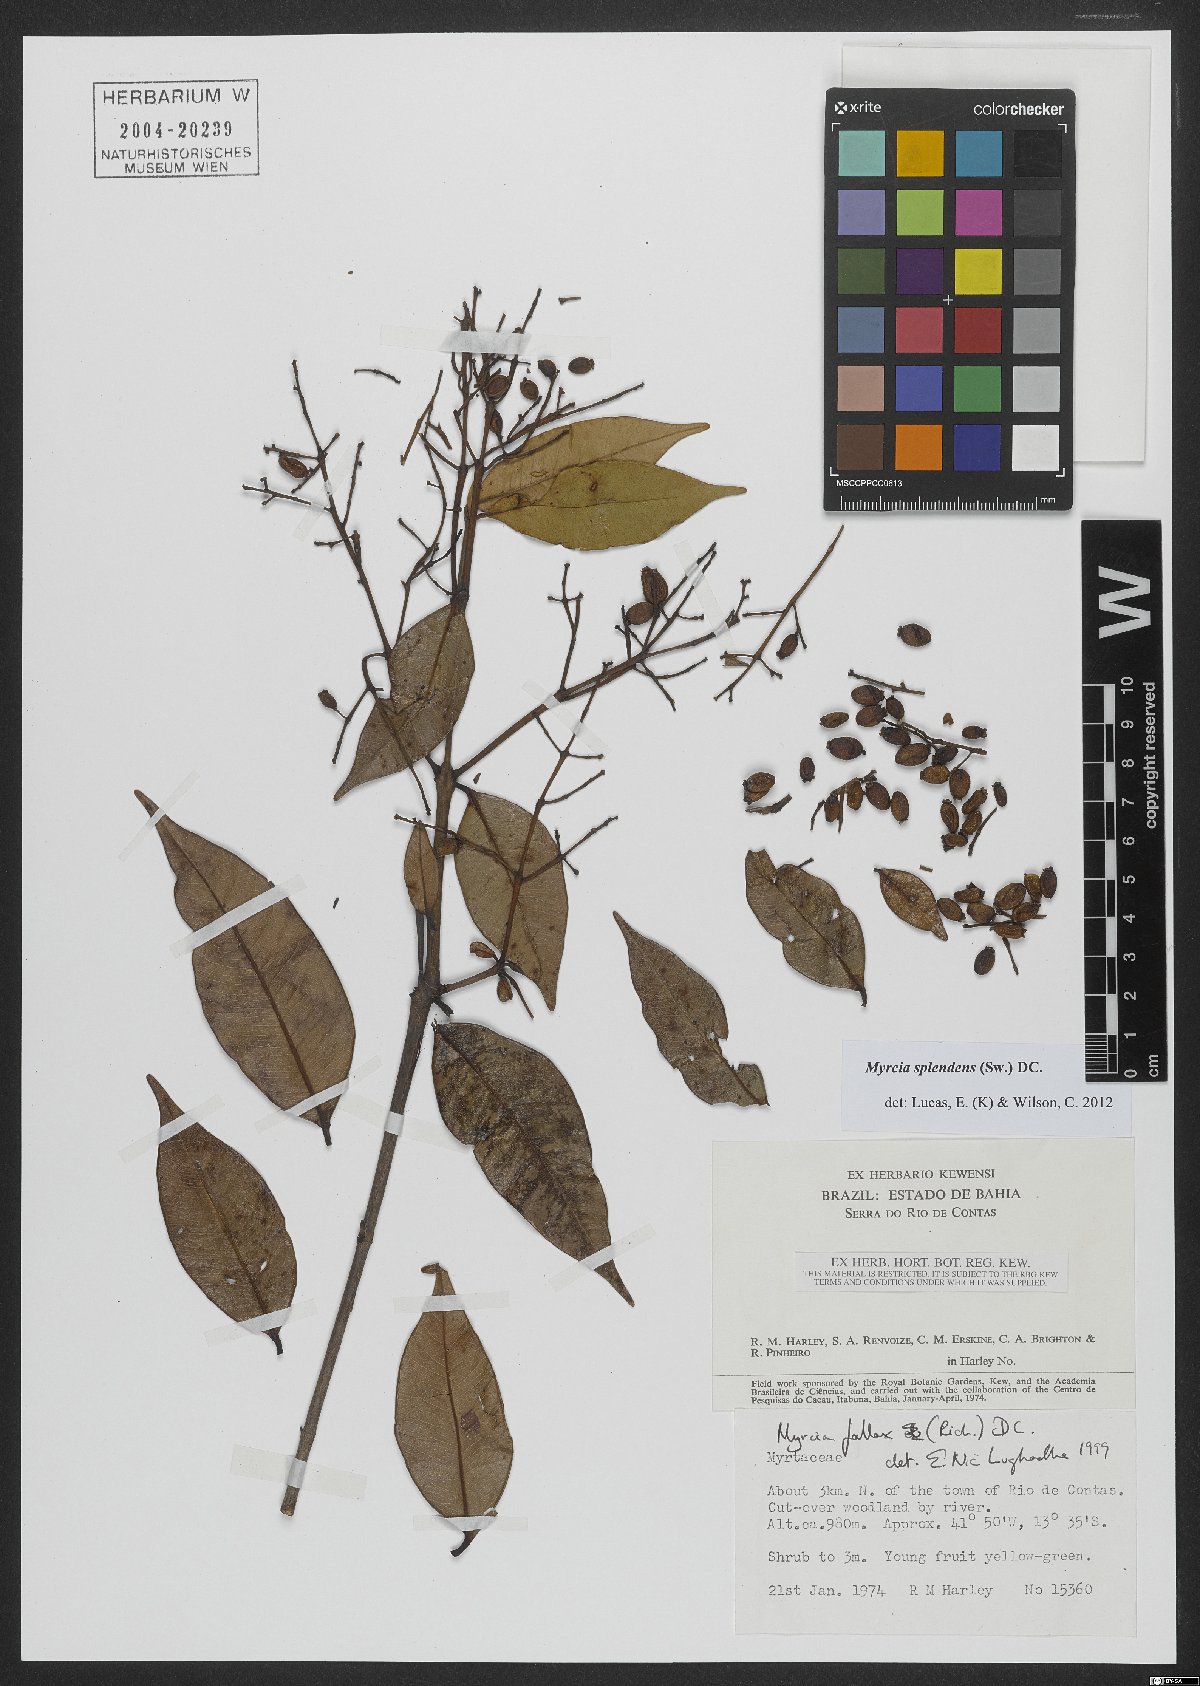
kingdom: Plantae
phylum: Tracheophyta
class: Magnoliopsida
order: Myrtales
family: Myrtaceae
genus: Myrcia
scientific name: Myrcia splendens
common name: Surinam cherry
